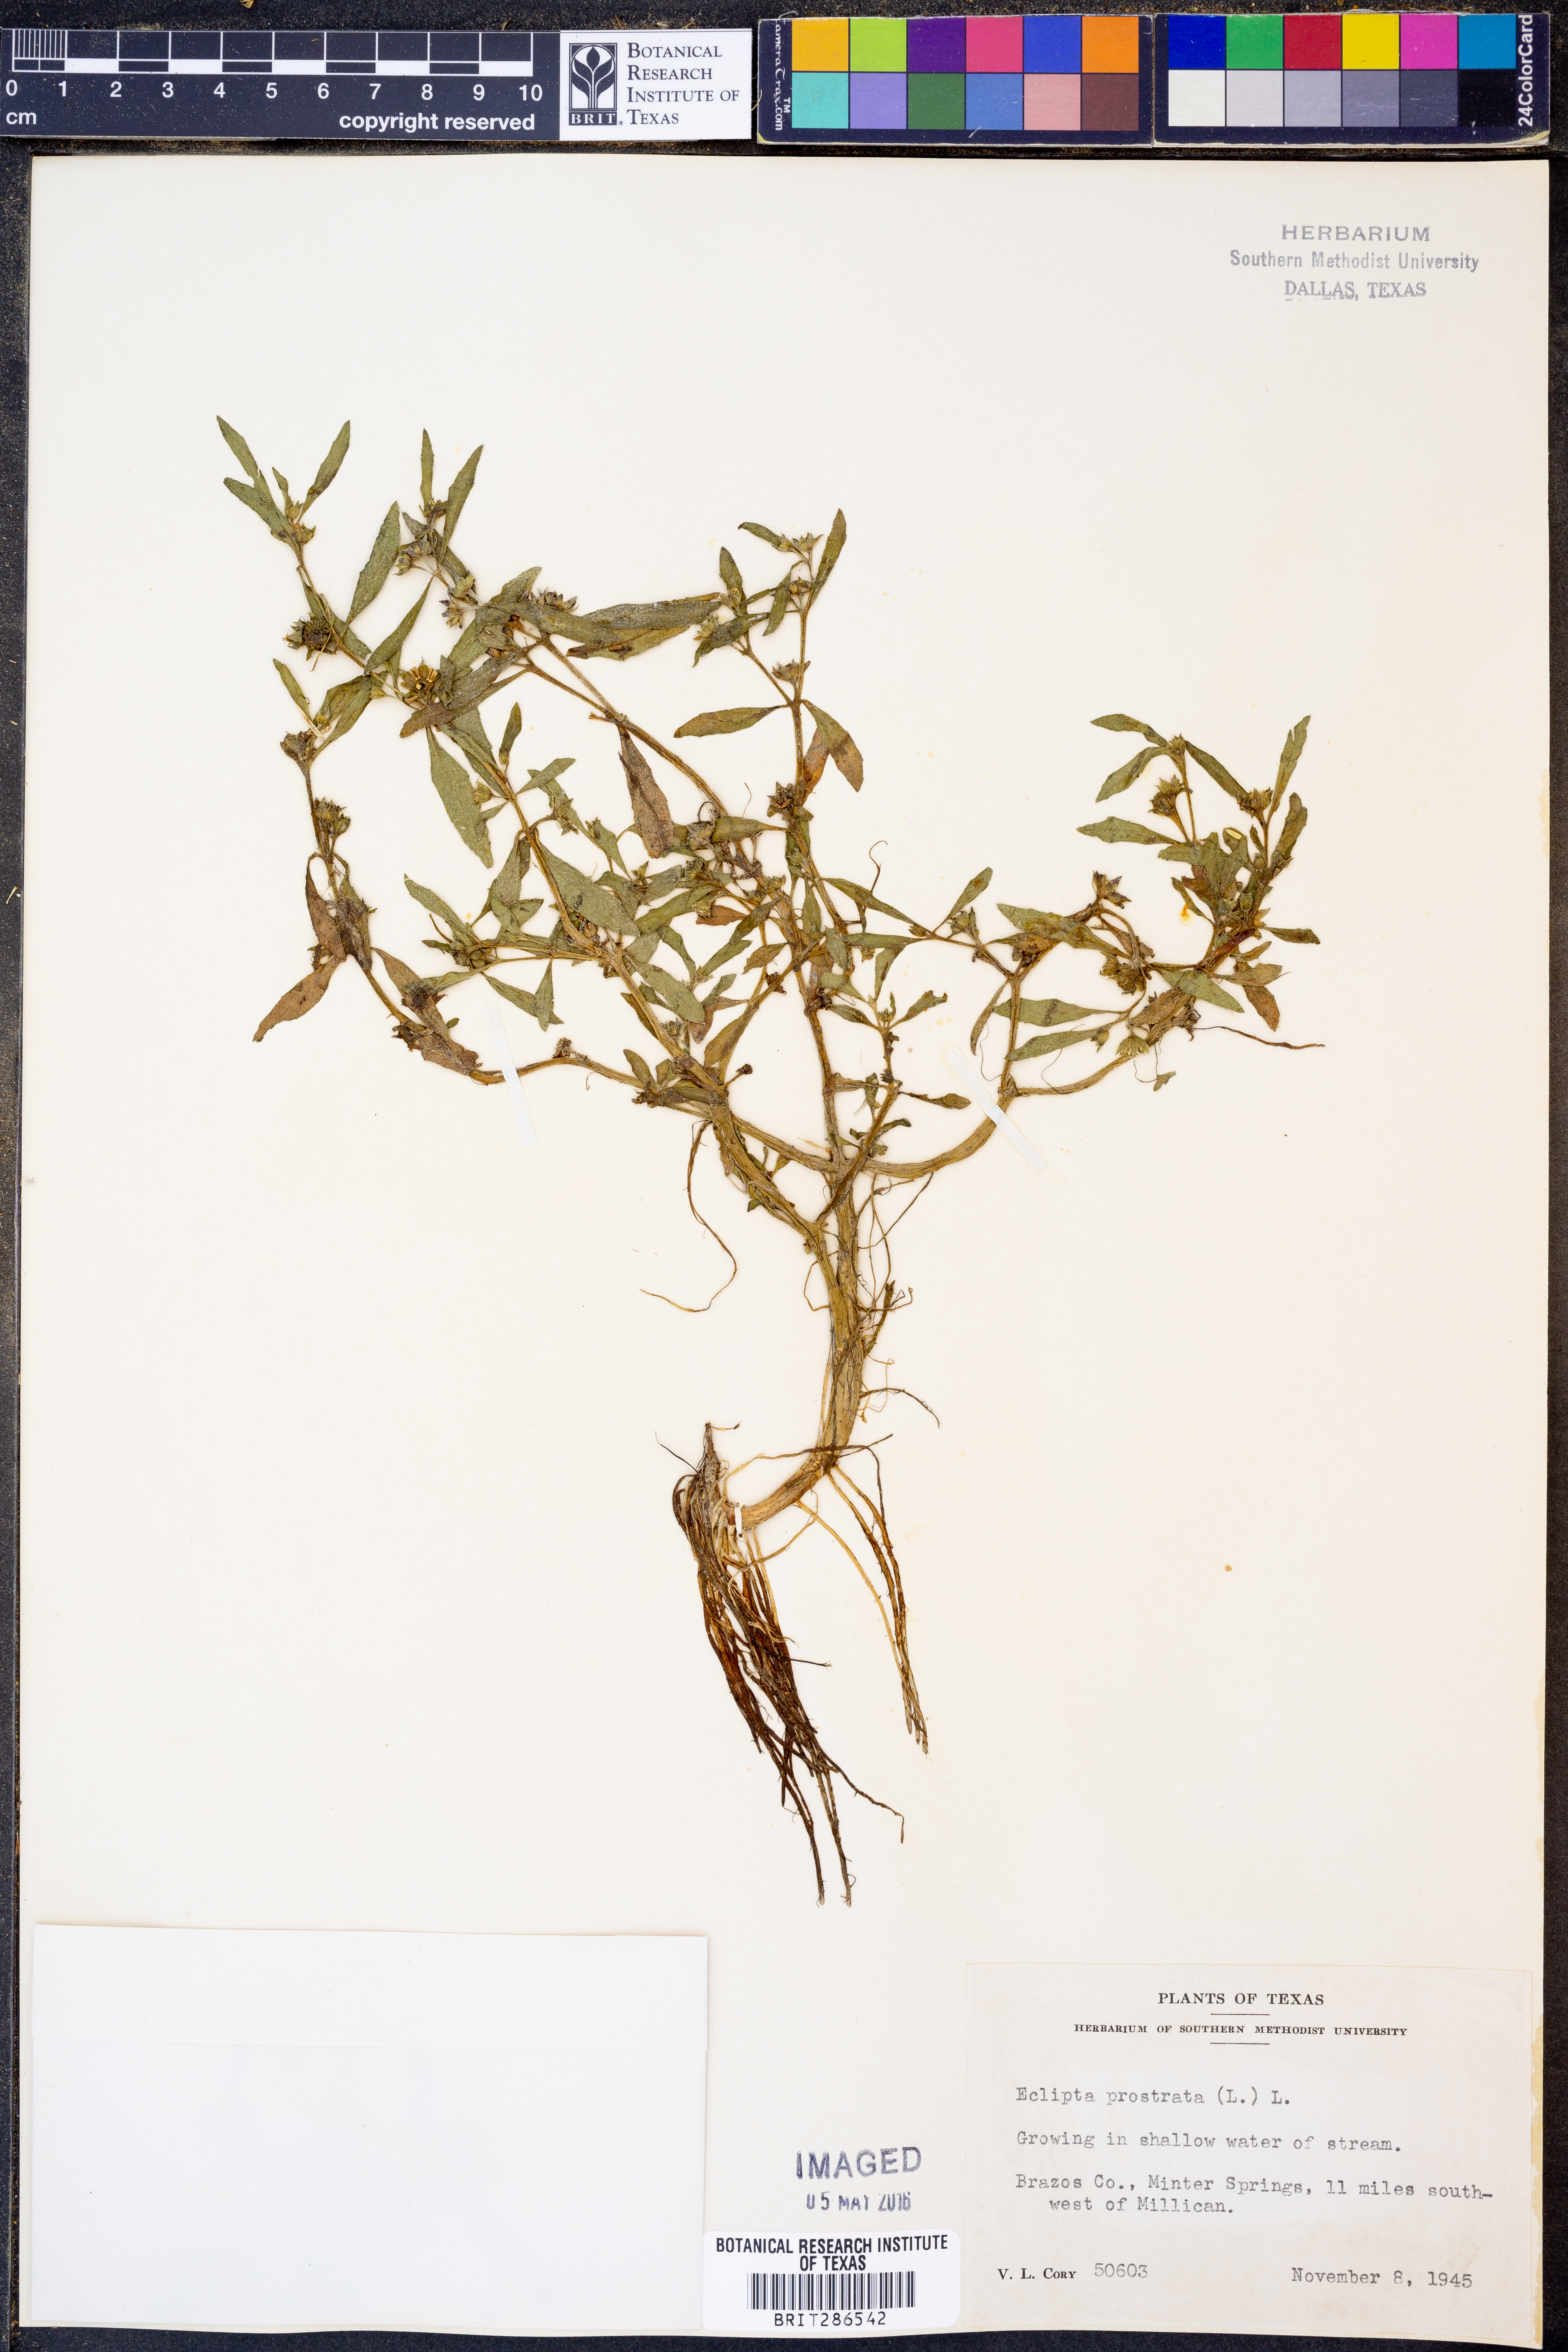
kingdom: Plantae
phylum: Tracheophyta
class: Magnoliopsida
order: Asterales
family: Asteraceae
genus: Eclipta
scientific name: Eclipta prostrata
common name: False daisy
